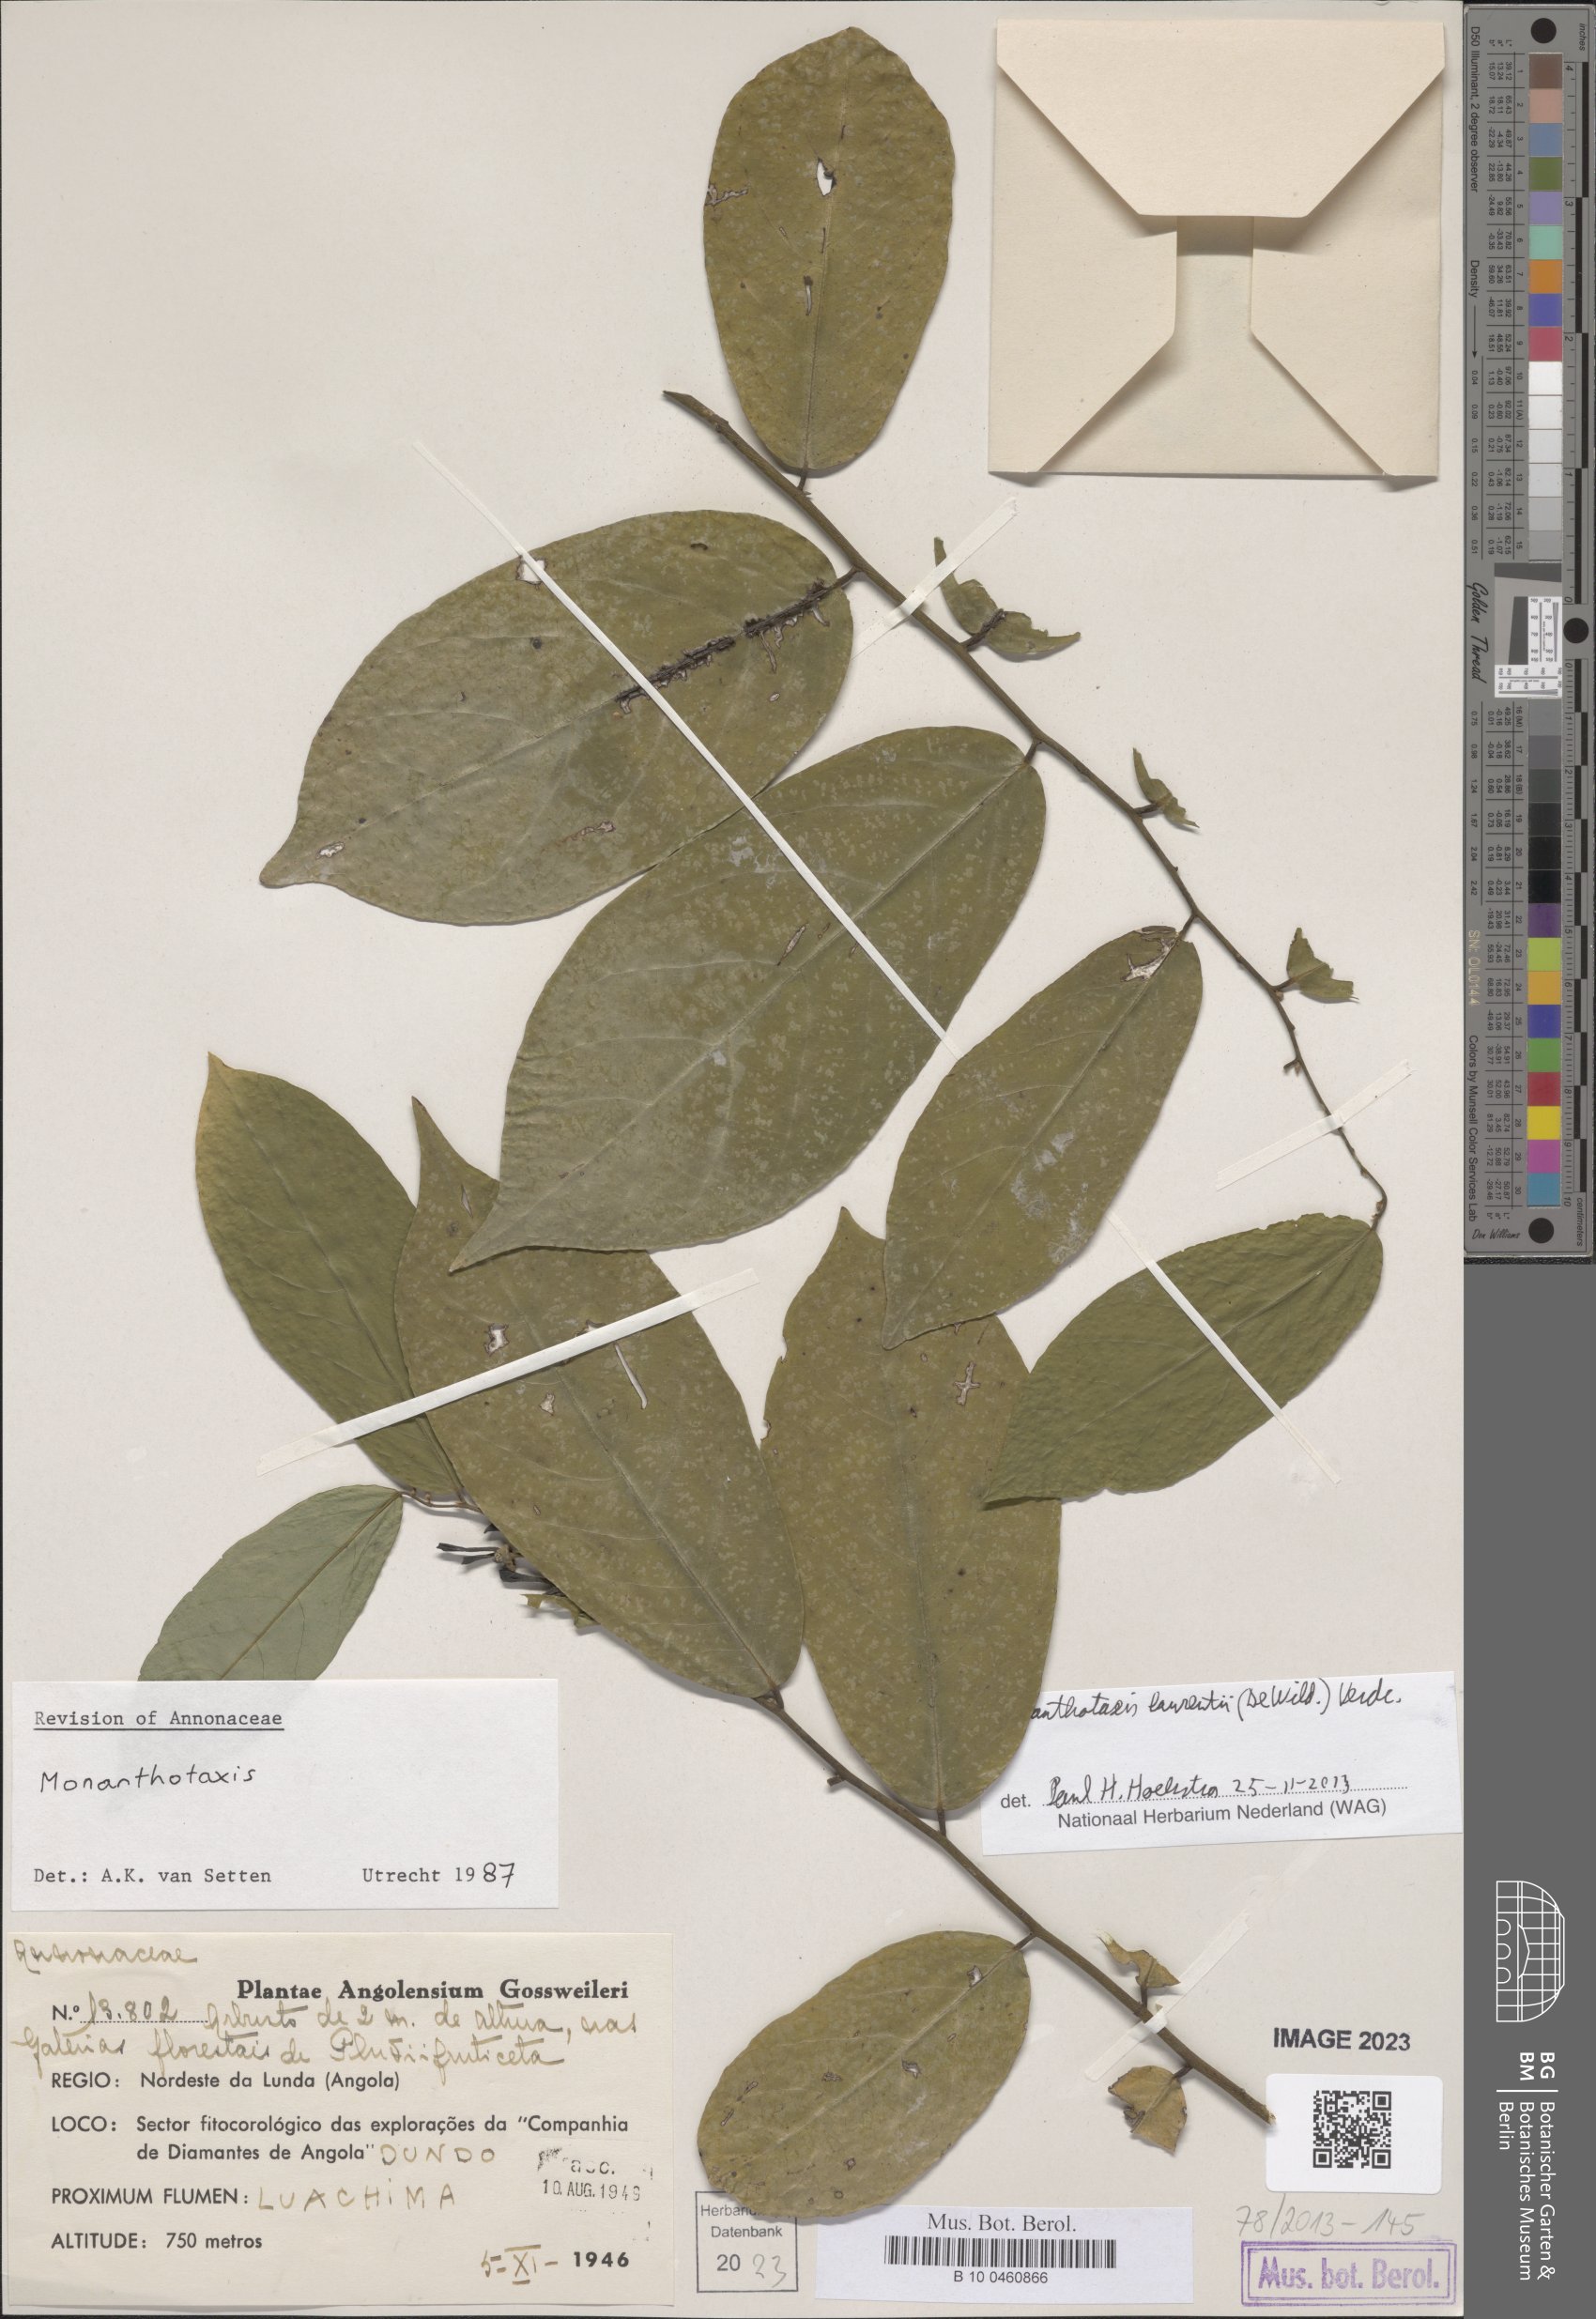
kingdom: Plantae
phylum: Tracheophyta
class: Magnoliopsida
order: Magnoliales
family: Annonaceae
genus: Monanthotaxis
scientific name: Monanthotaxis laurentii
